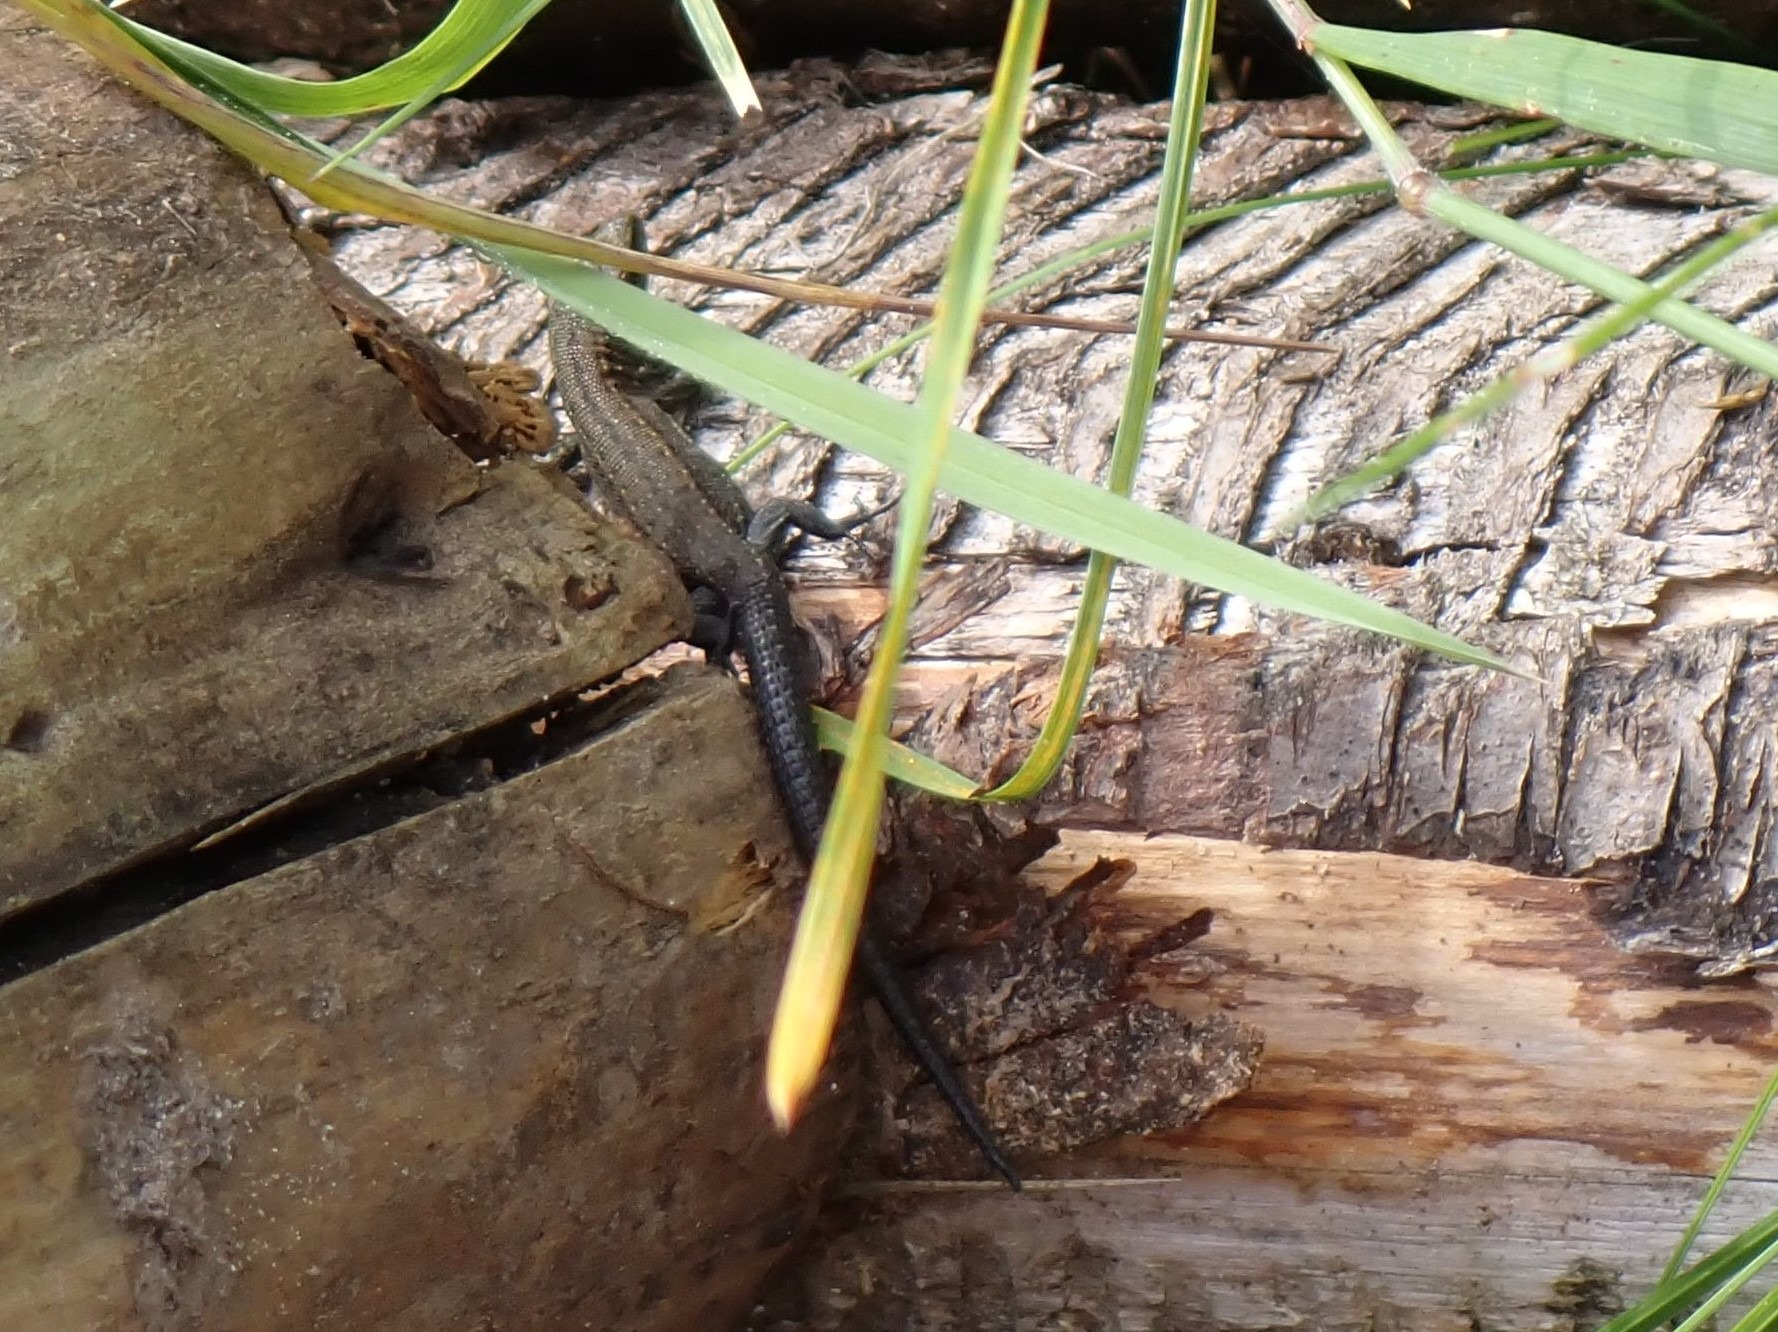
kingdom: Animalia
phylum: Chordata
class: Squamata
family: Lacertidae
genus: Zootoca
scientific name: Zootoca vivipara
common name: Skovfirben
